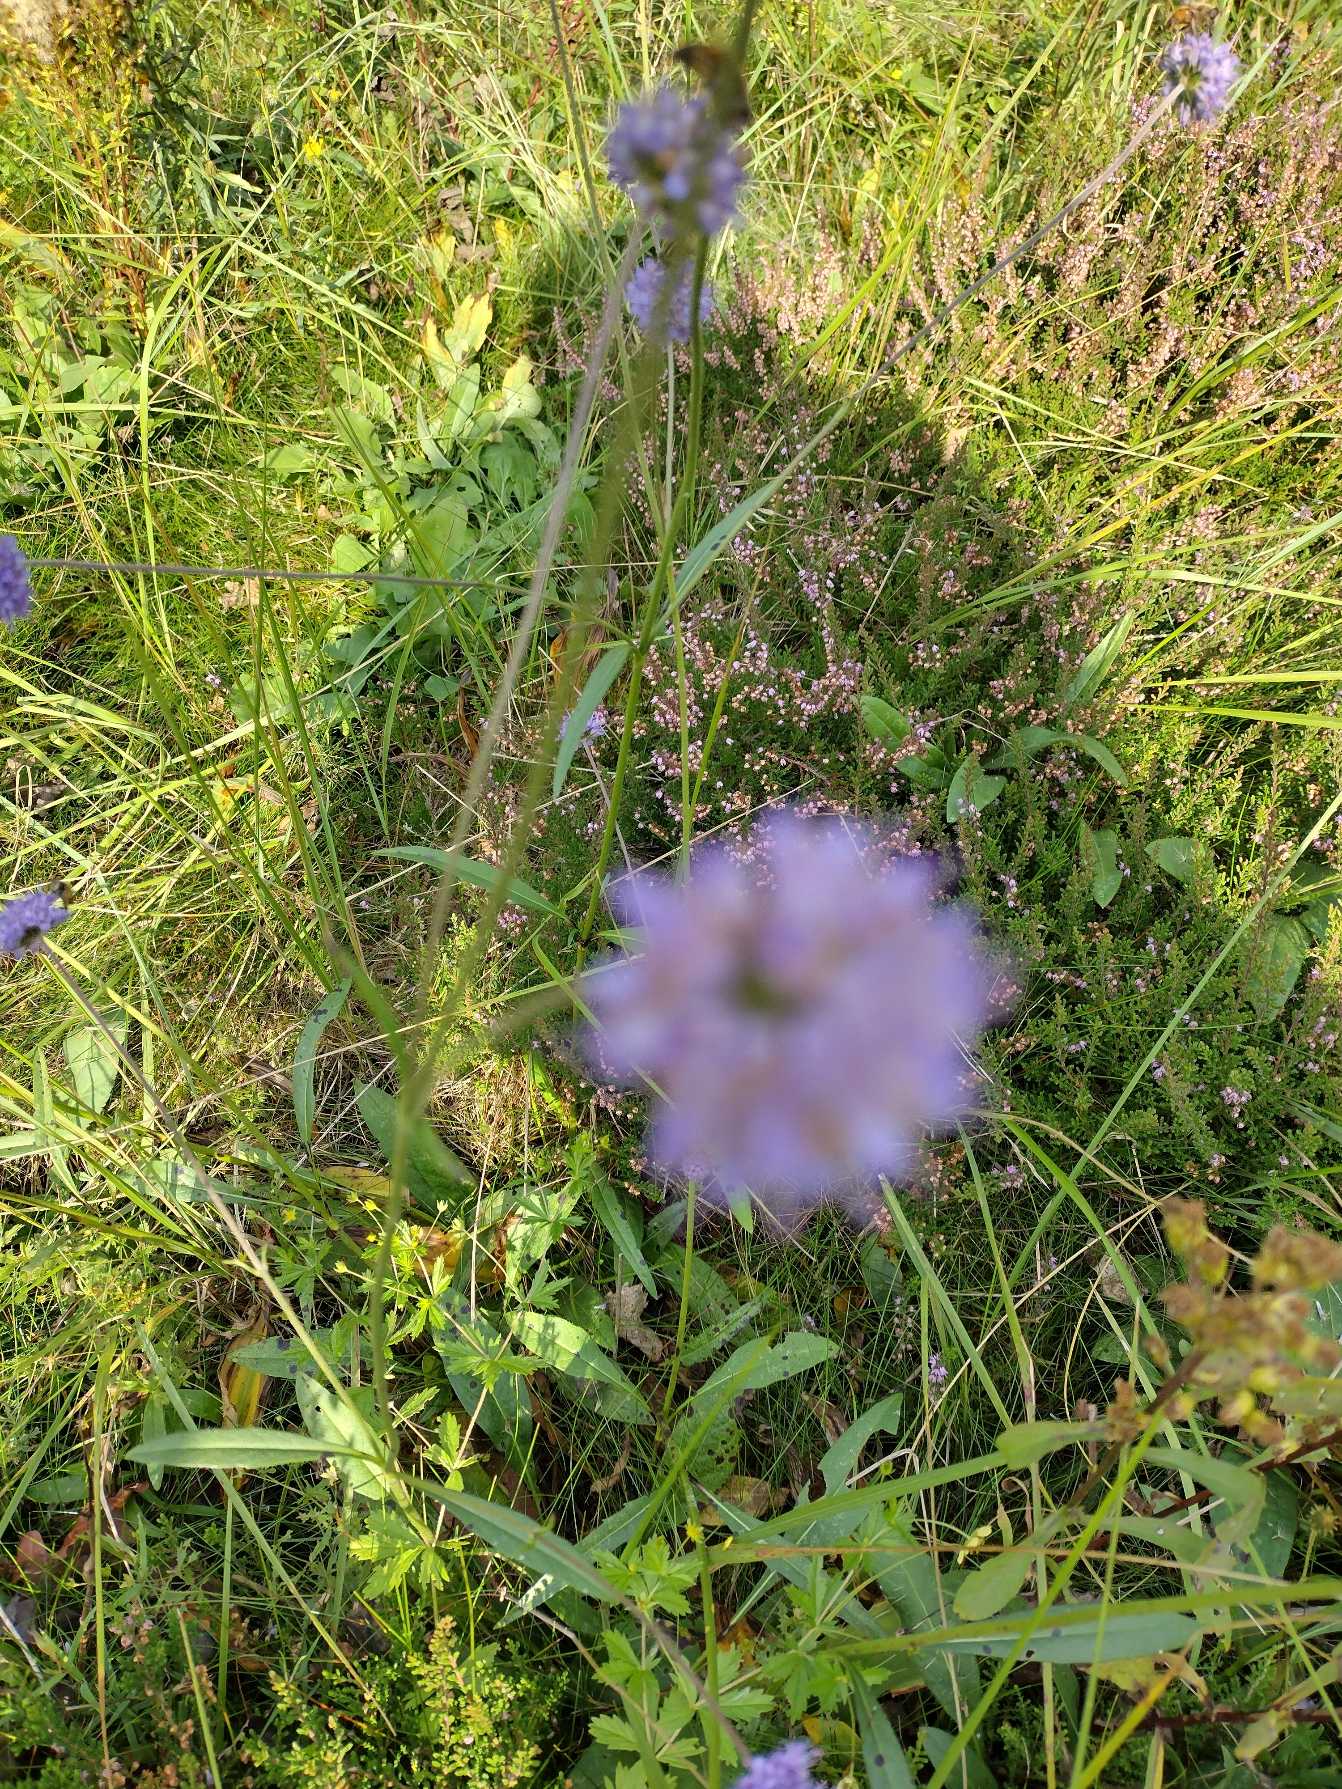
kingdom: Plantae
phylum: Tracheophyta
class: Magnoliopsida
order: Dipsacales
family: Caprifoliaceae
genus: Succisa
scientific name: Succisa pratensis
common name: Djævelsbid
